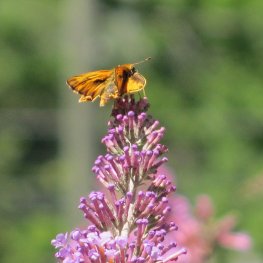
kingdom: Animalia
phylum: Arthropoda
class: Insecta
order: Lepidoptera
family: Hesperiidae
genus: Hylephila
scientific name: Hylephila phyleus
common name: Fiery Skipper
